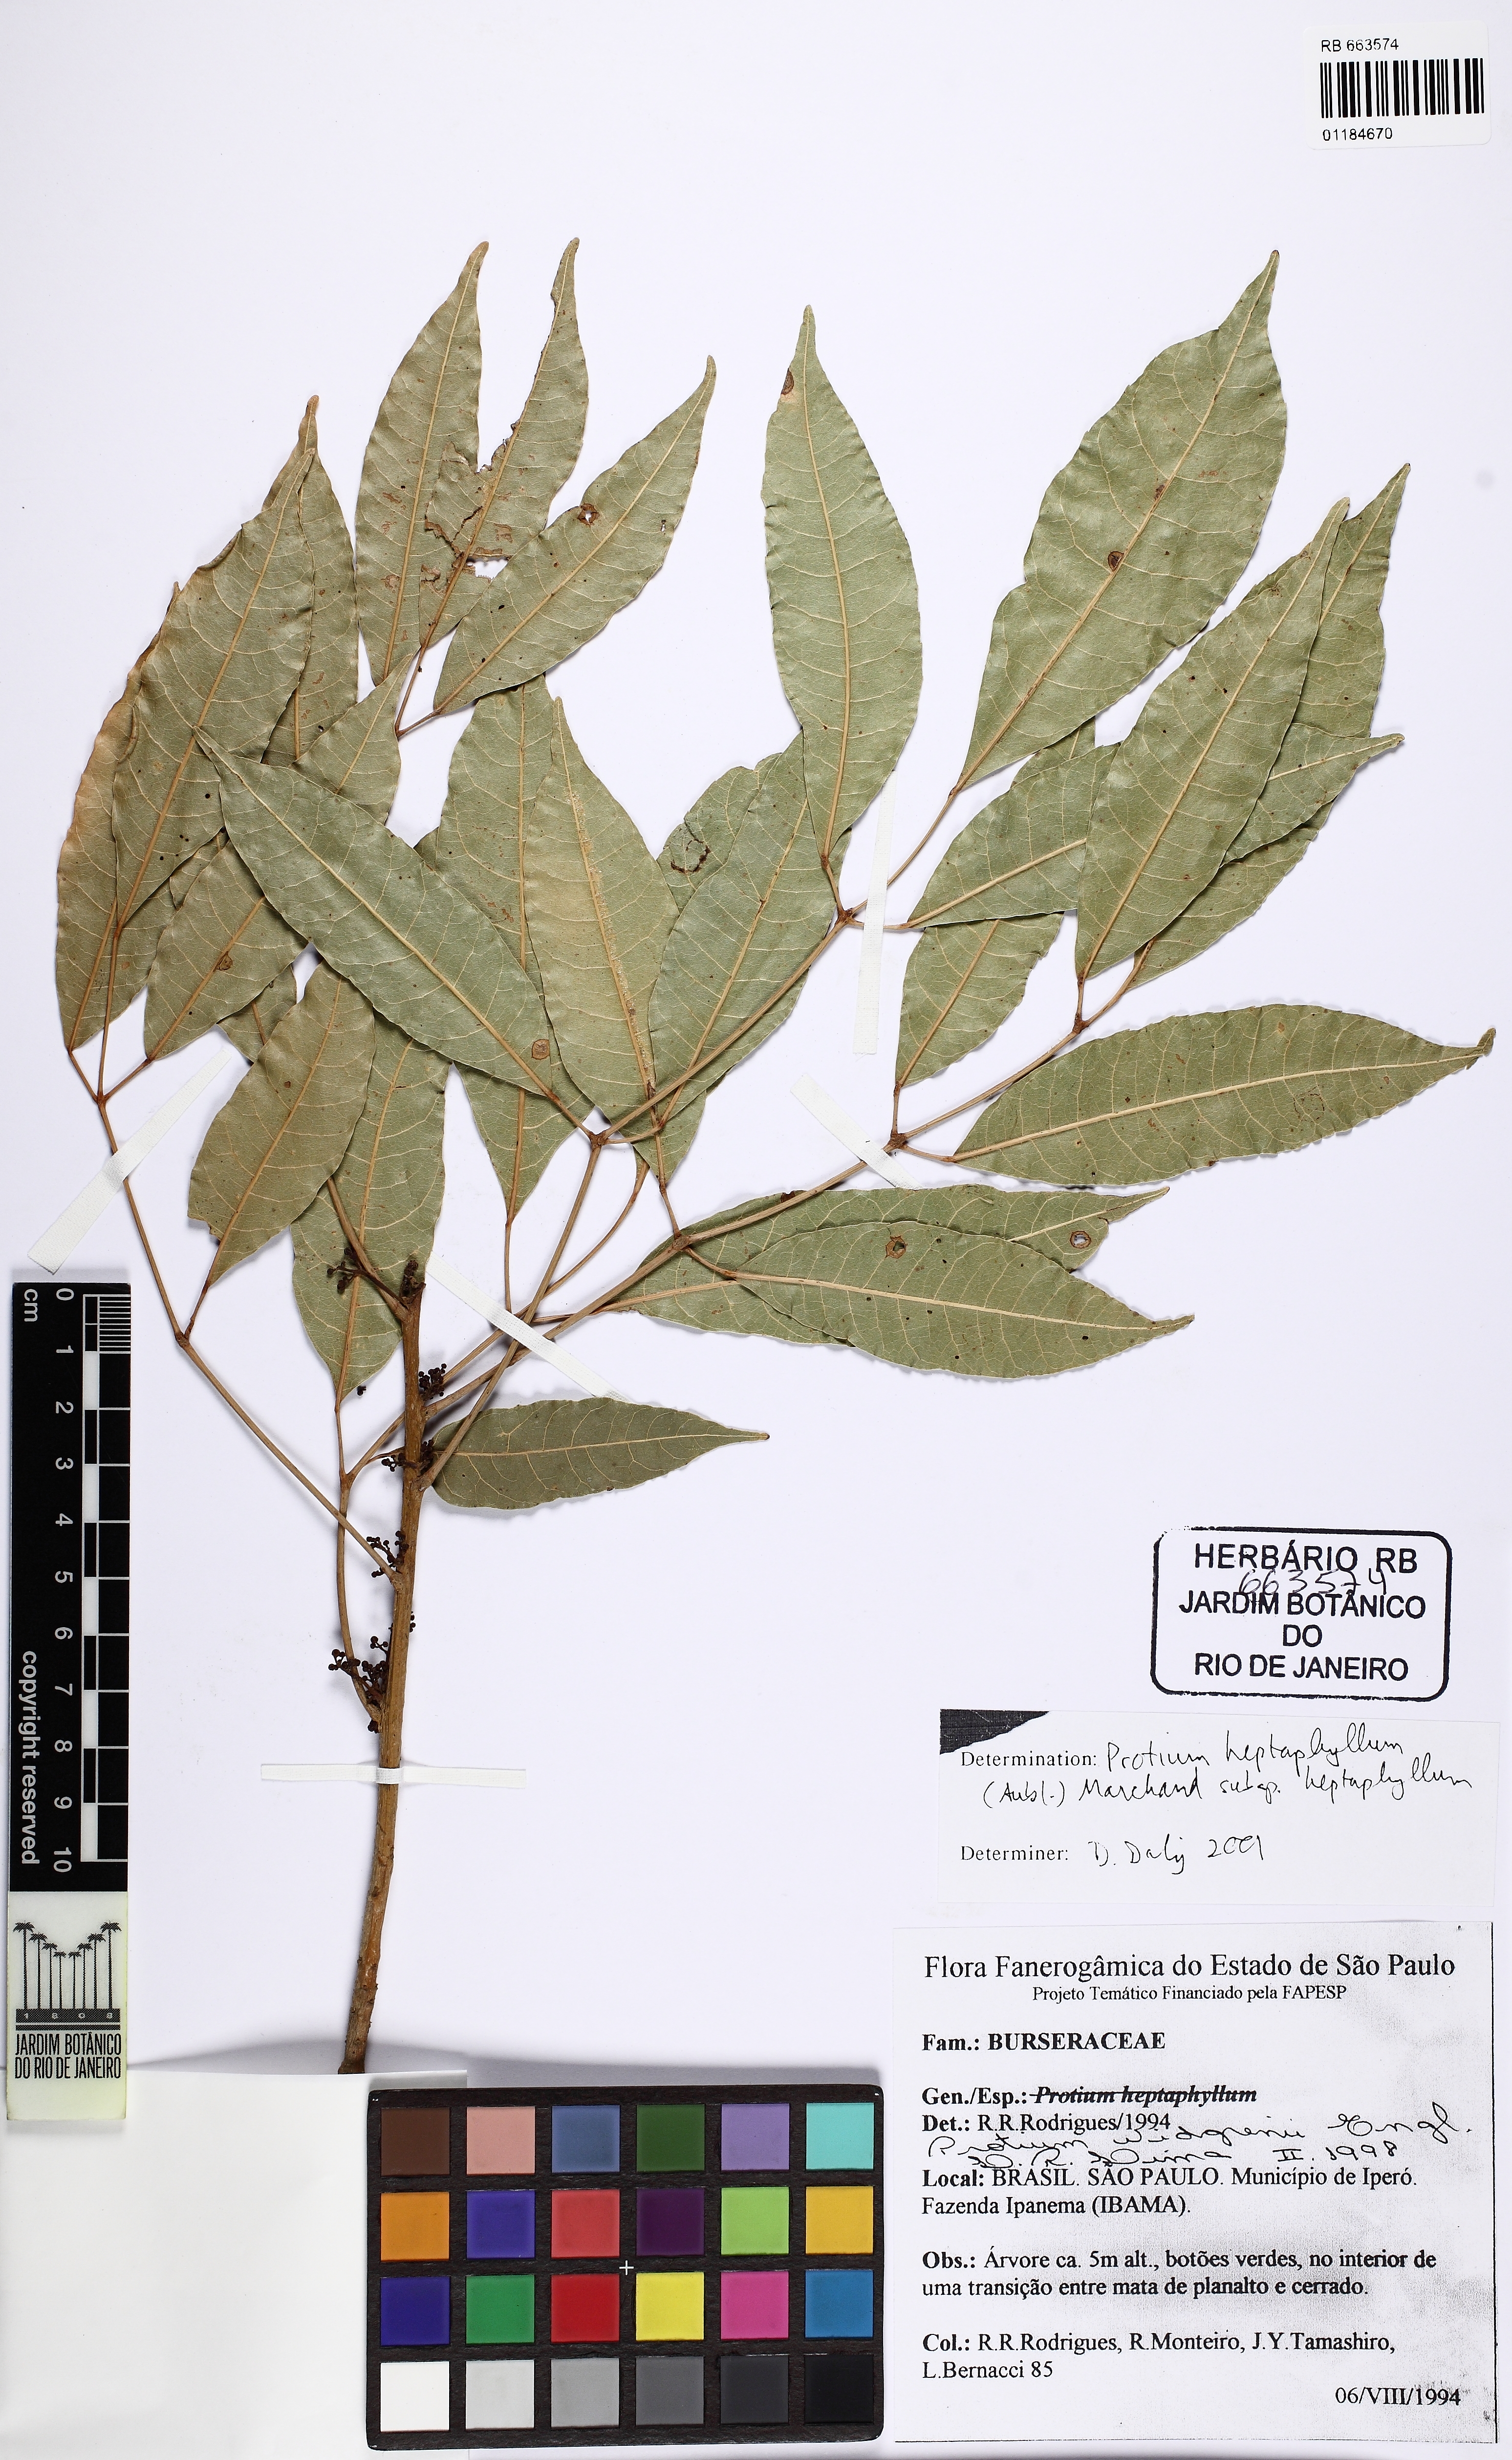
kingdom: Plantae
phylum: Tracheophyta
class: Magnoliopsida
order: Sapindales
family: Burseraceae
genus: Protium
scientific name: Protium heptaphyllum
